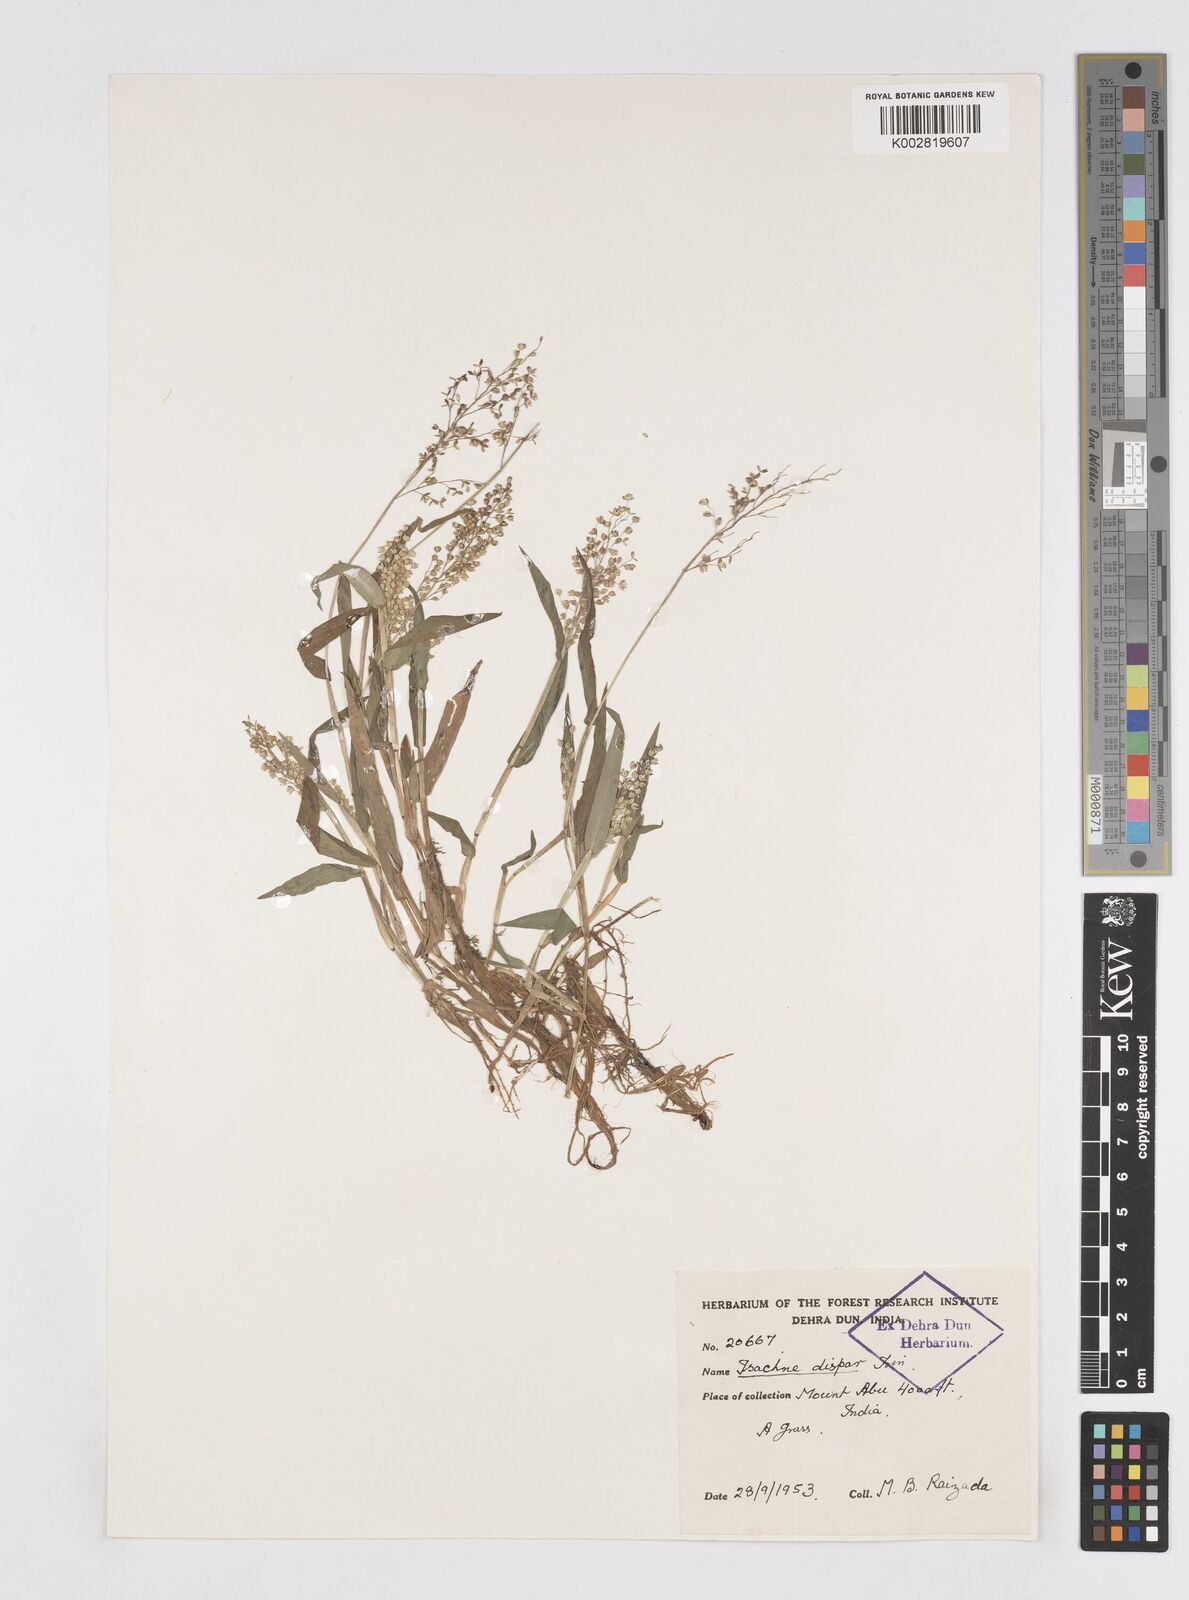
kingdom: Plantae
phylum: Tracheophyta
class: Liliopsida
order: Poales
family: Poaceae
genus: Isachne
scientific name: Isachne globosa
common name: Swamp millet
